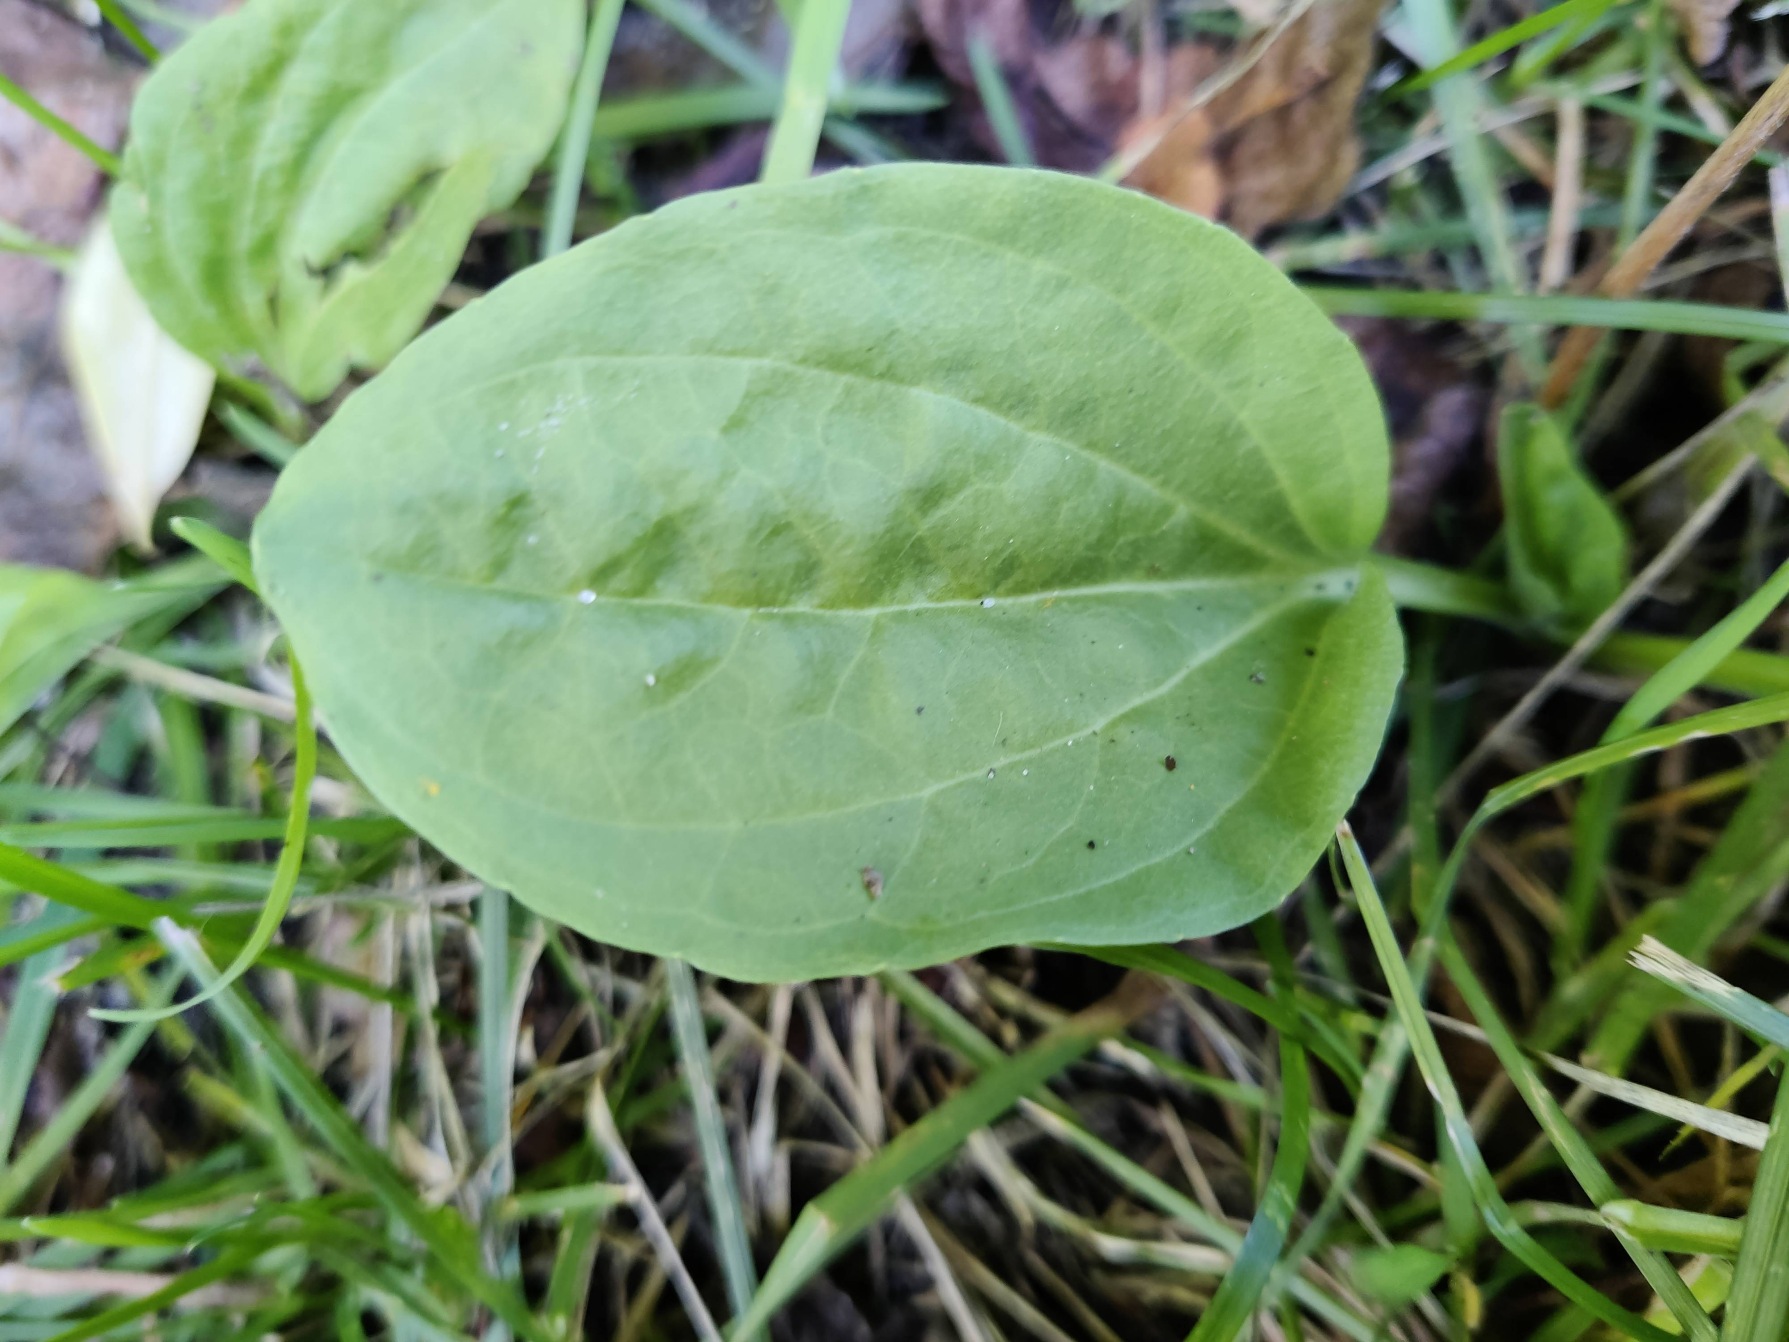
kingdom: Plantae
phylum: Tracheophyta
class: Magnoliopsida
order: Lamiales
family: Plantaginaceae
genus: Plantago
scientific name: Plantago major
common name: Glat vejbred
